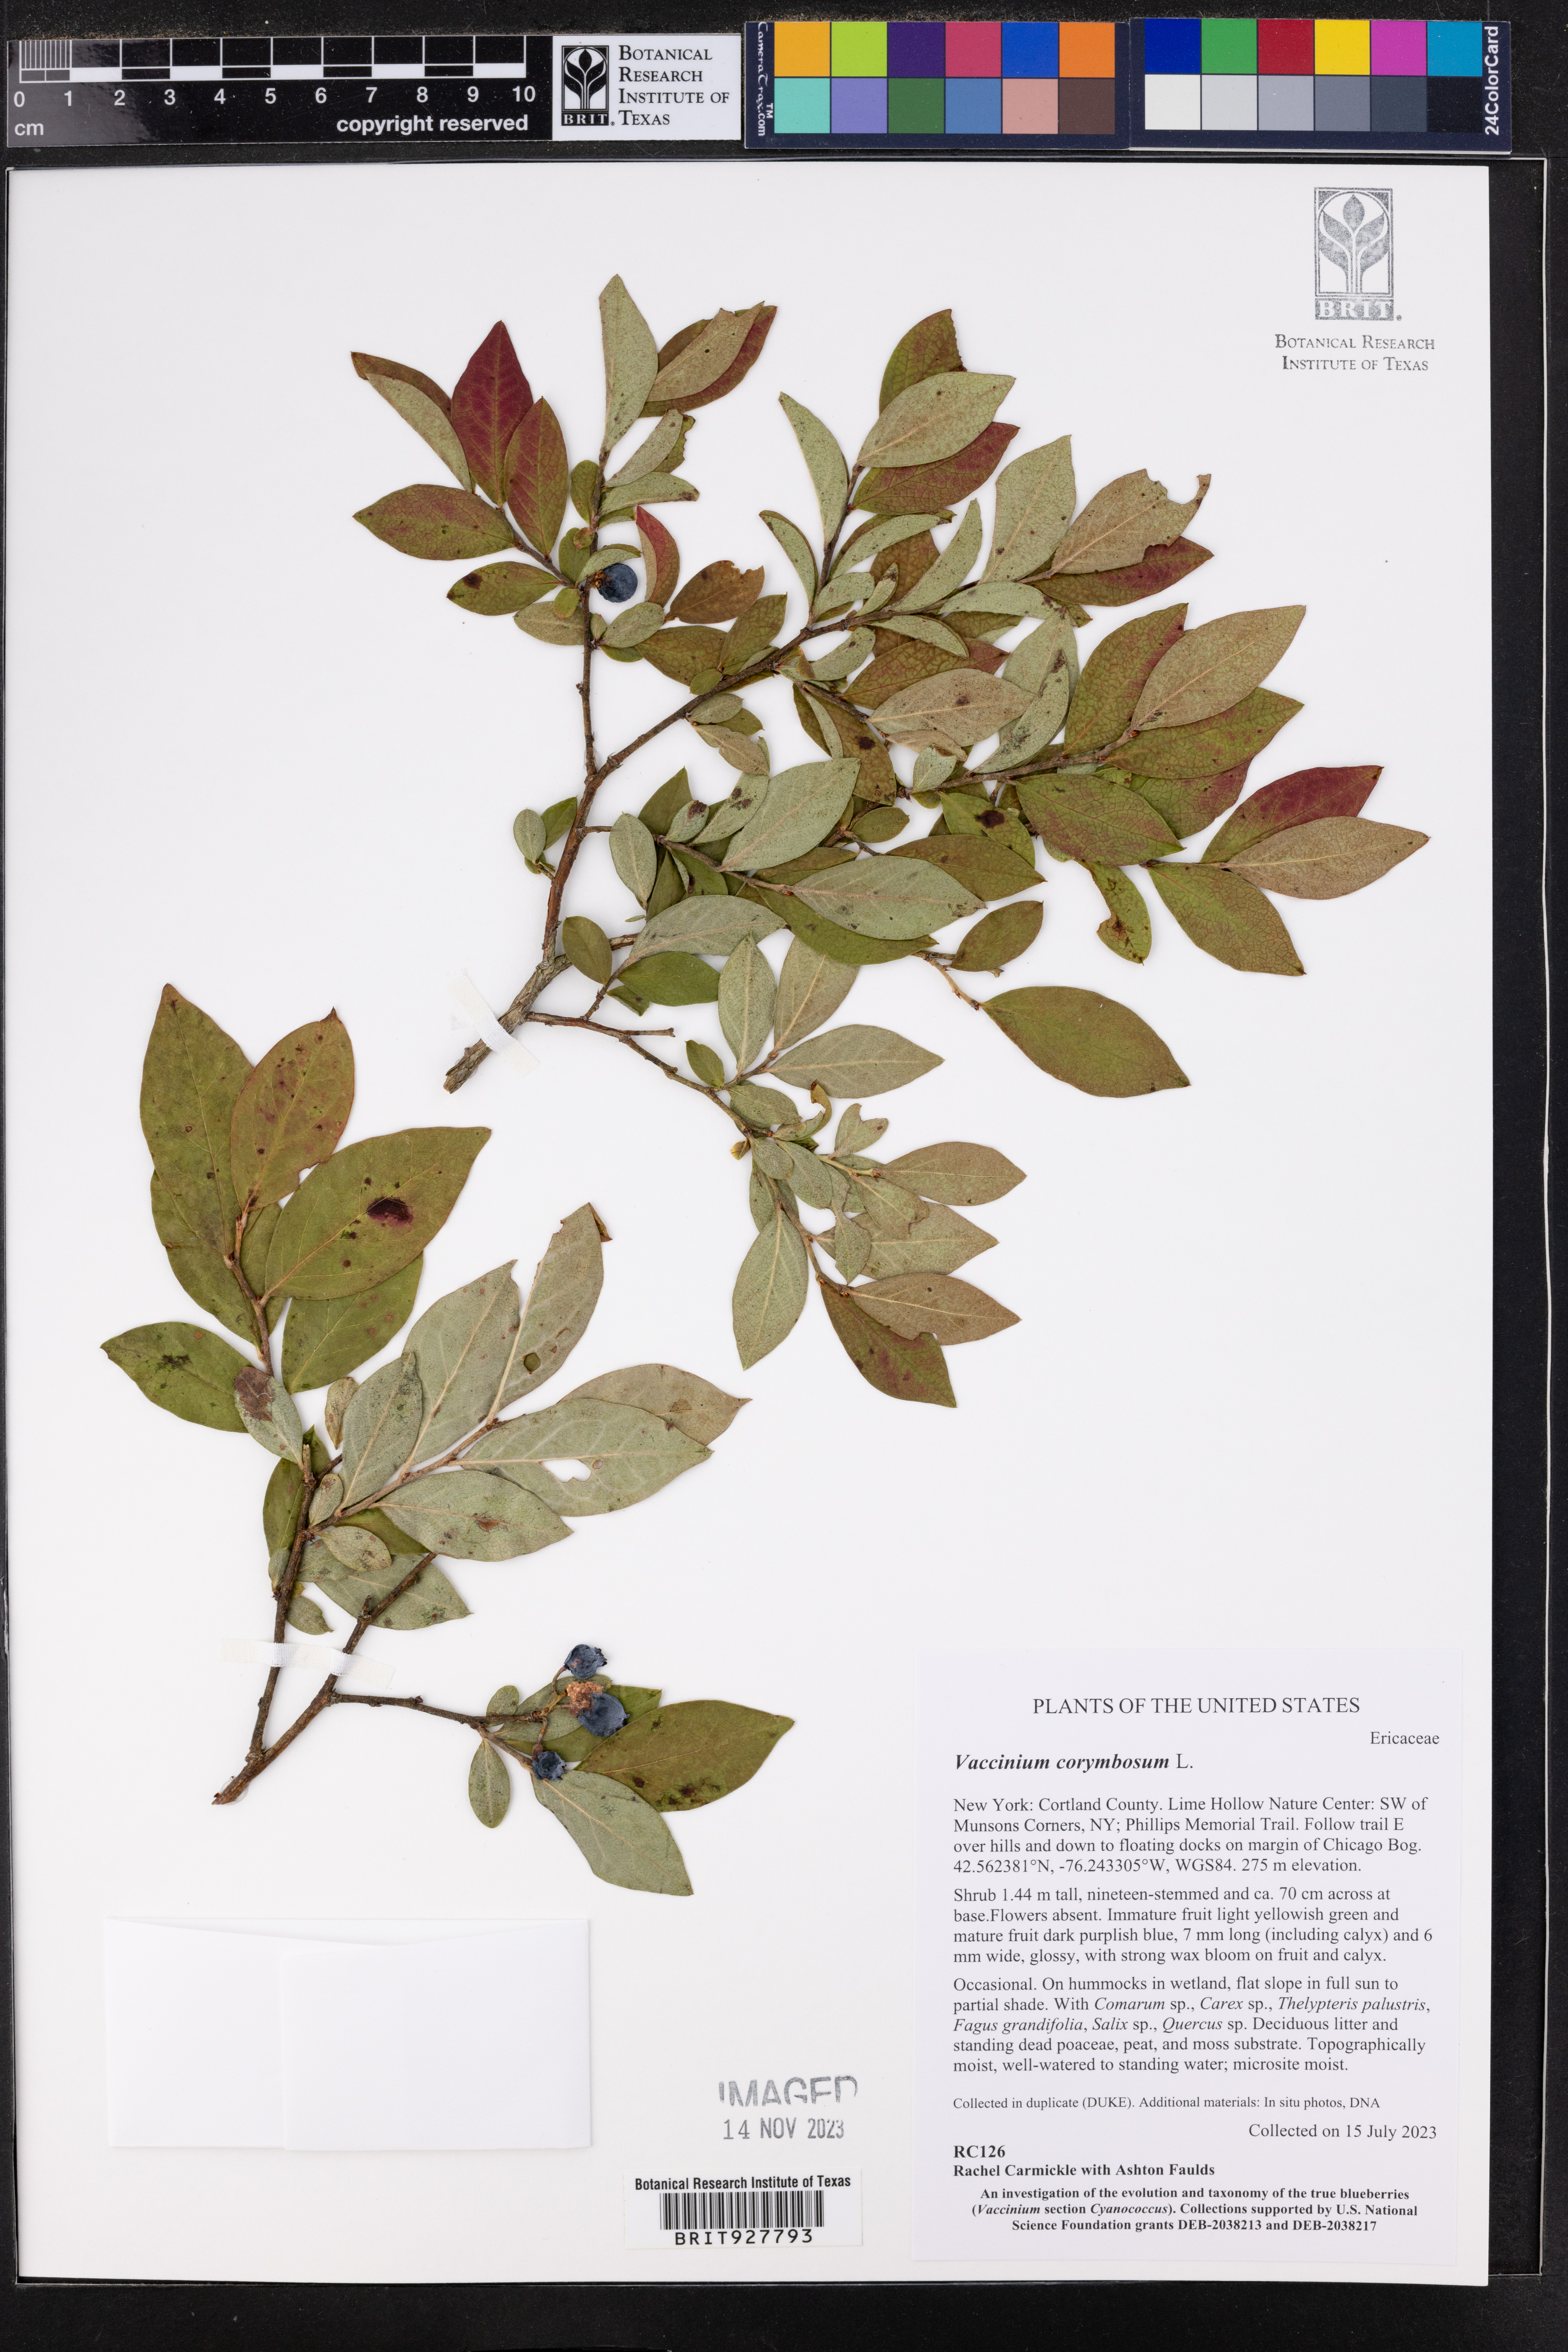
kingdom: Plantae
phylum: Tracheophyta
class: Magnoliopsida
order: Ericales
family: Ericaceae
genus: Vaccinium
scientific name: Vaccinium corymbosum
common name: Blueberry
